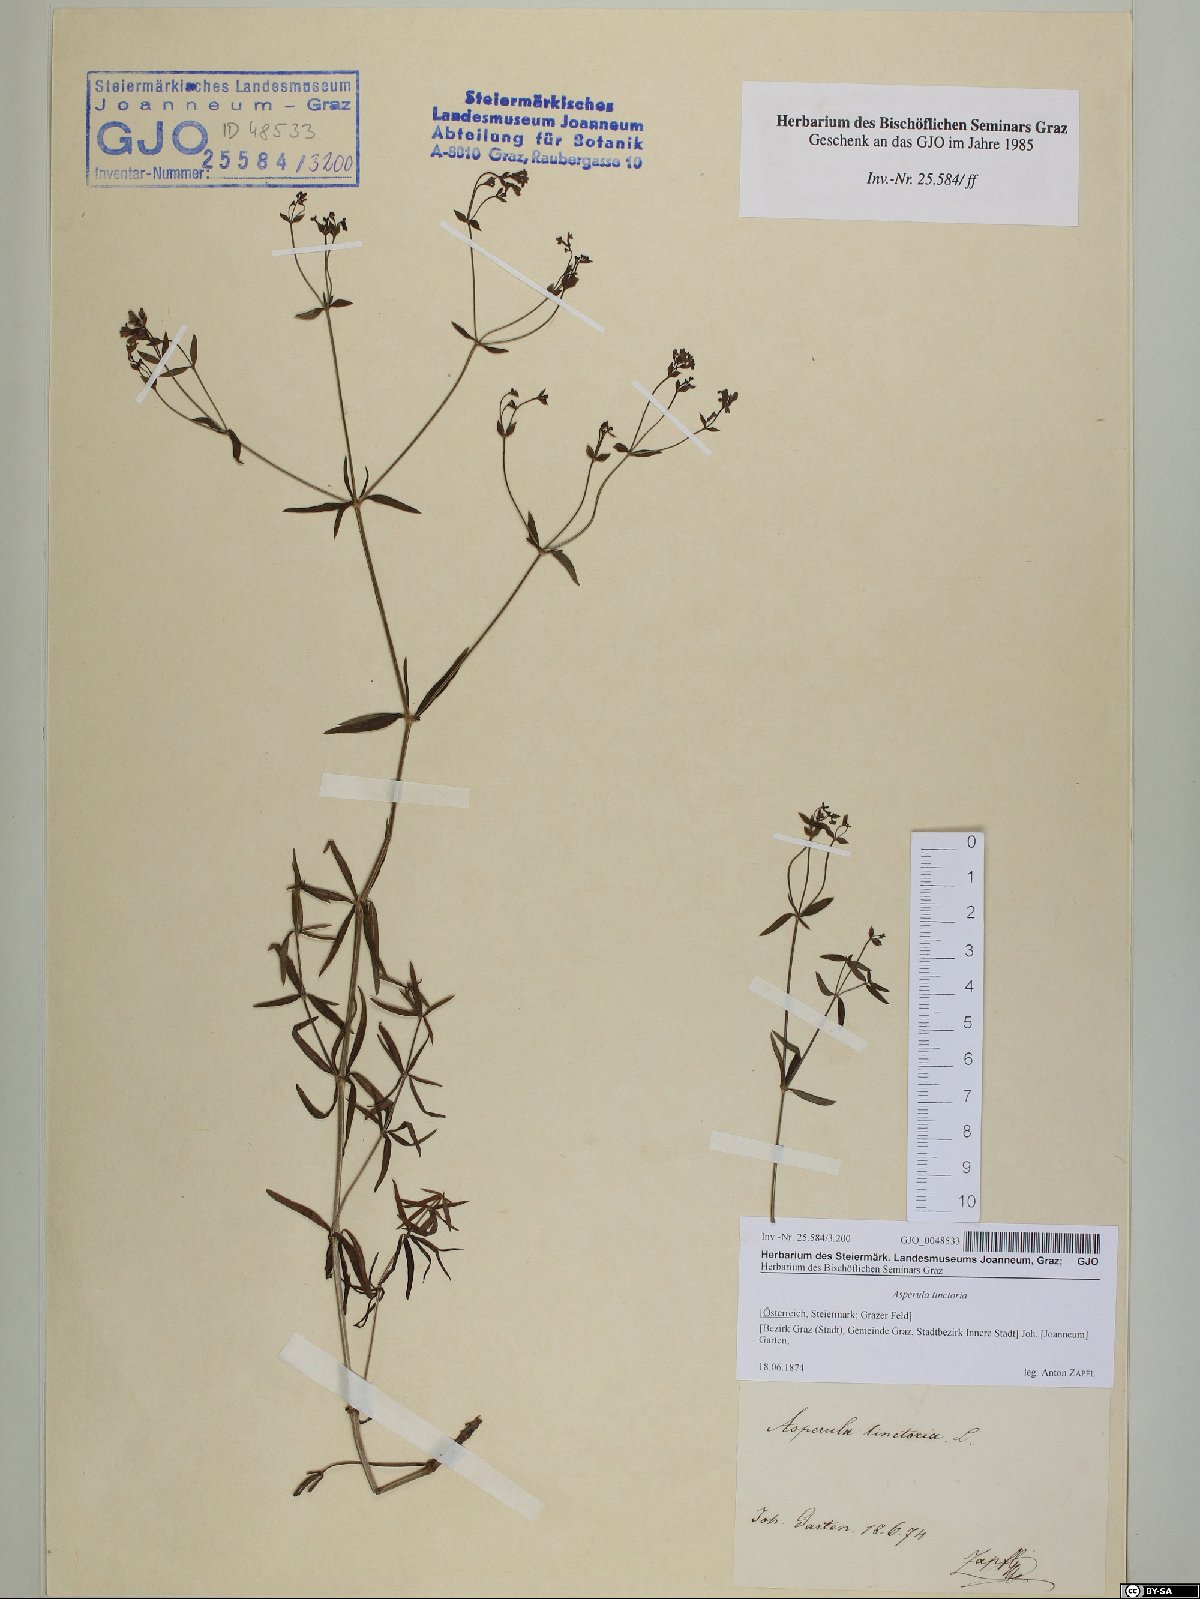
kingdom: Plantae
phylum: Tracheophyta
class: Magnoliopsida
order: Gentianales
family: Rubiaceae
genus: Asperula
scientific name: Asperula tinctoria
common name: Dyer's woodruff
